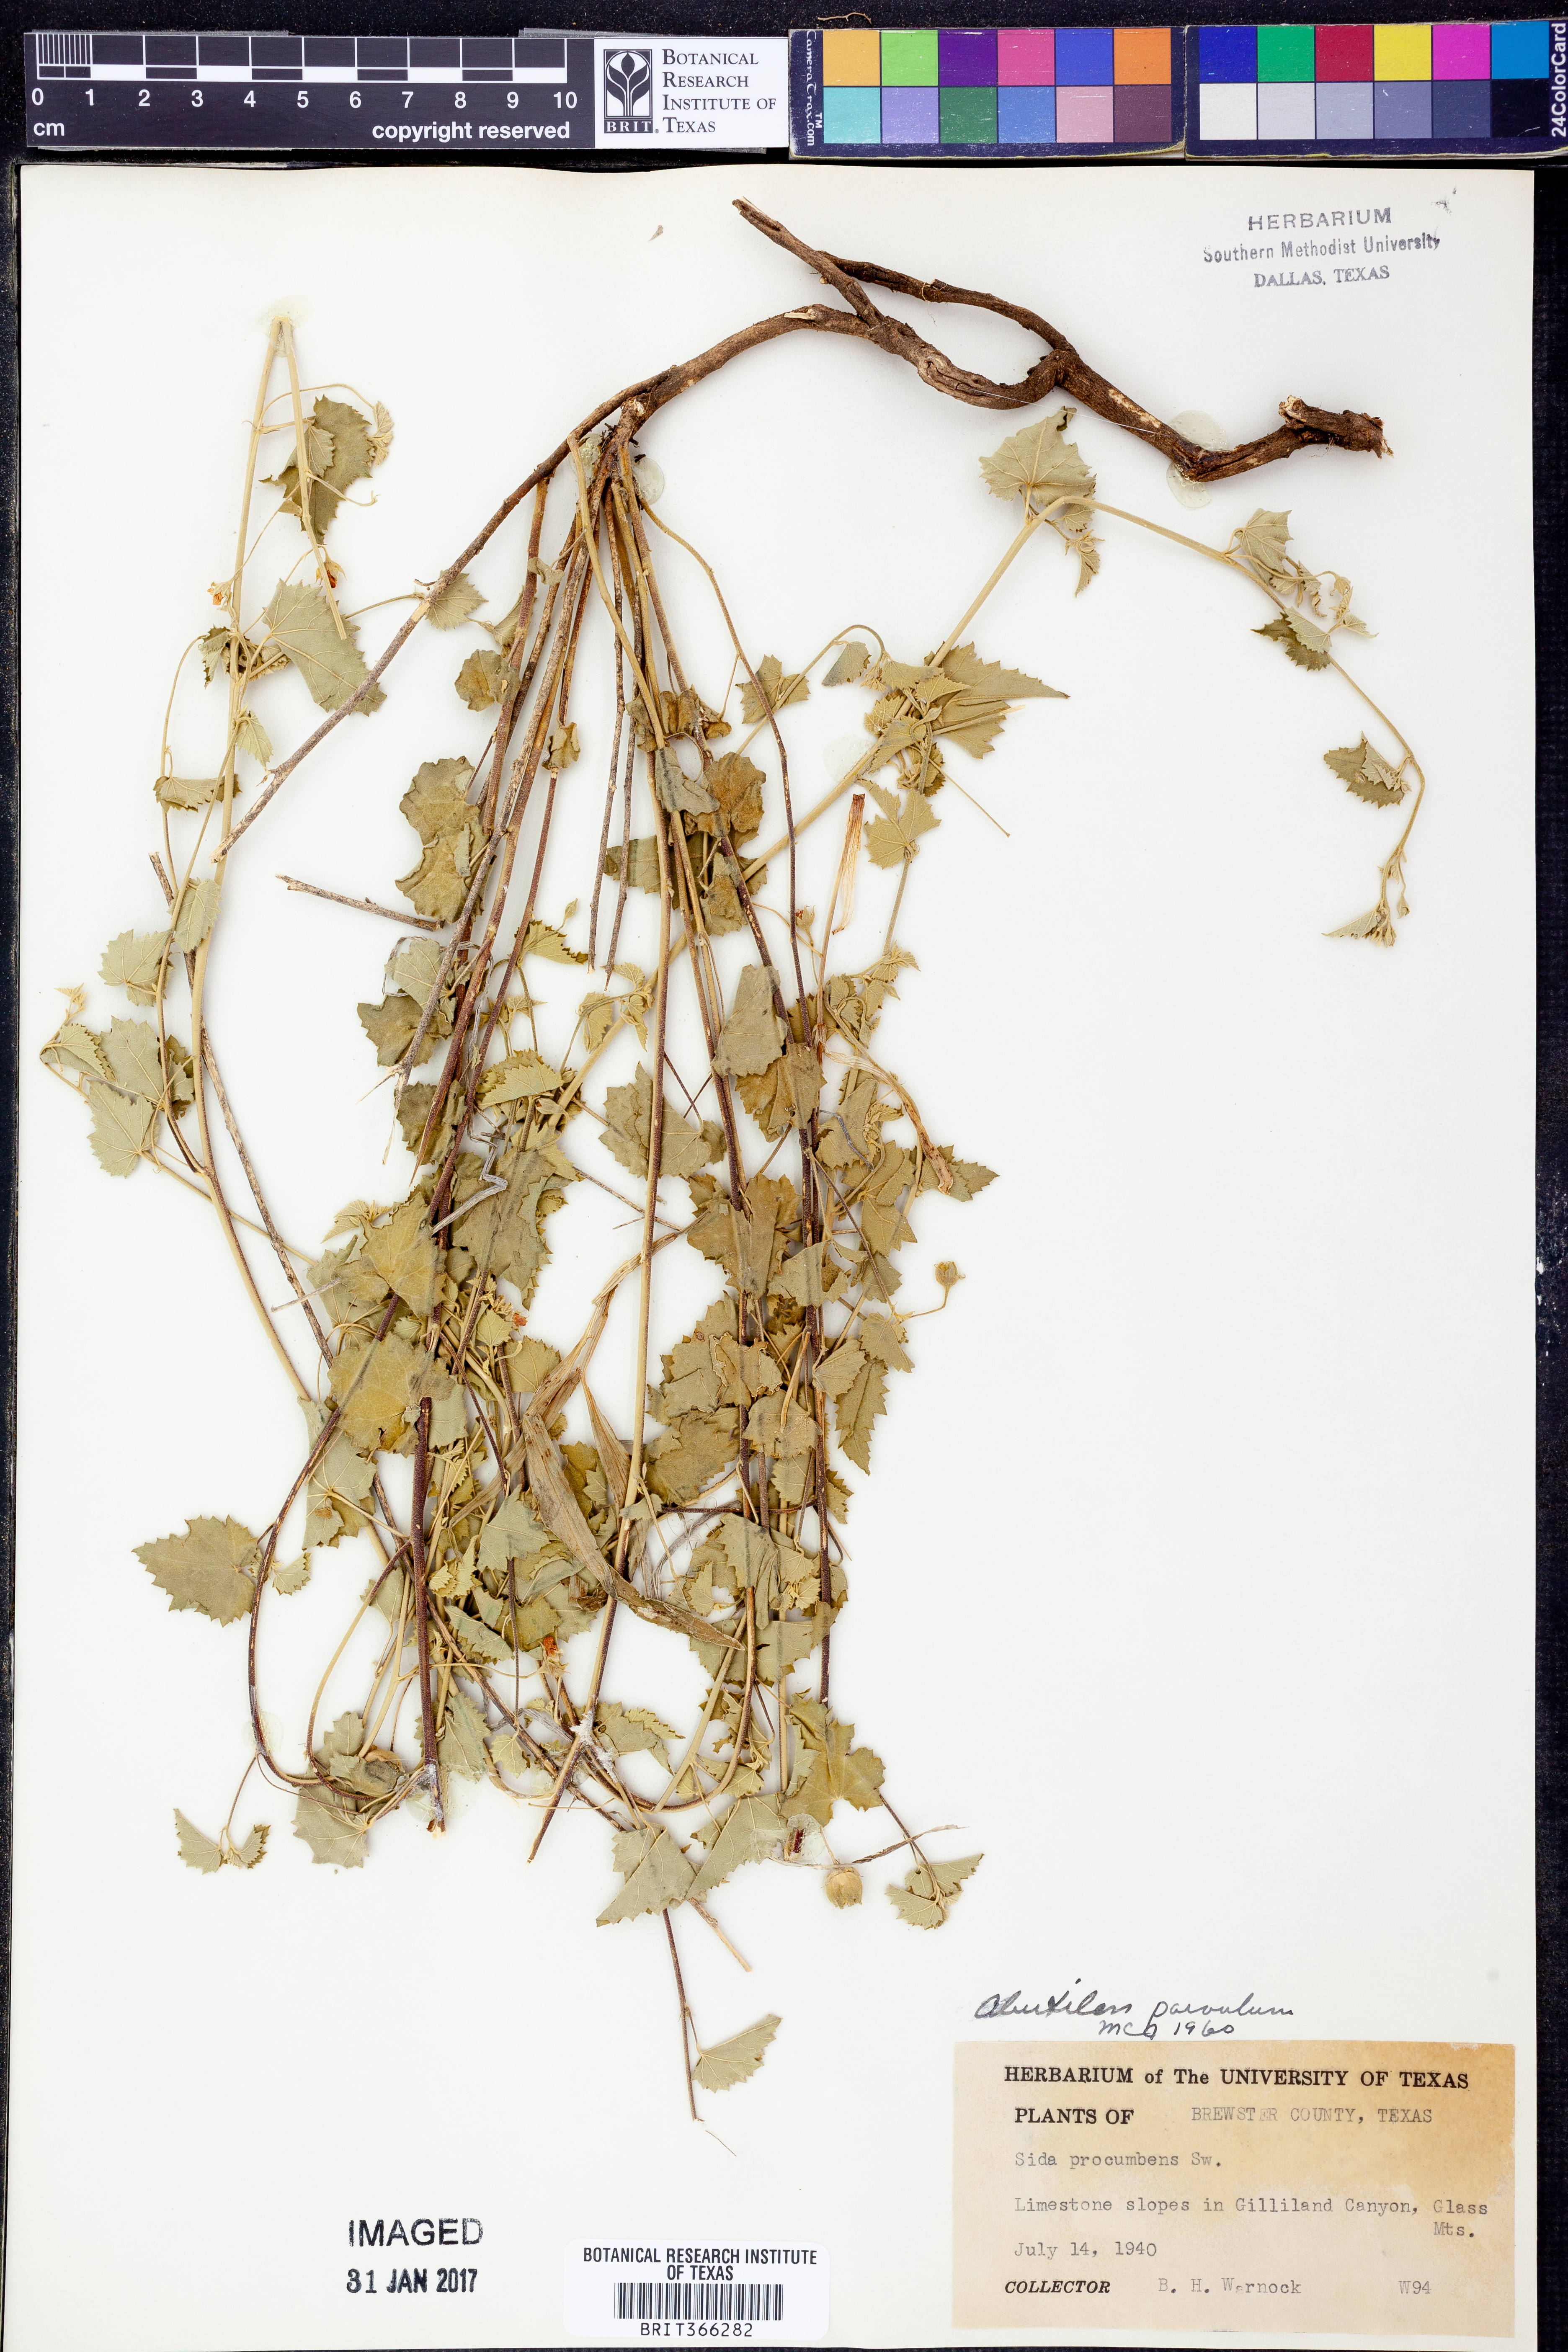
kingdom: Plantae
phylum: Tracheophyta
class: Magnoliopsida
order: Malvales
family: Malvaceae
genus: Abutilon
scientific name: Abutilon parvulum
